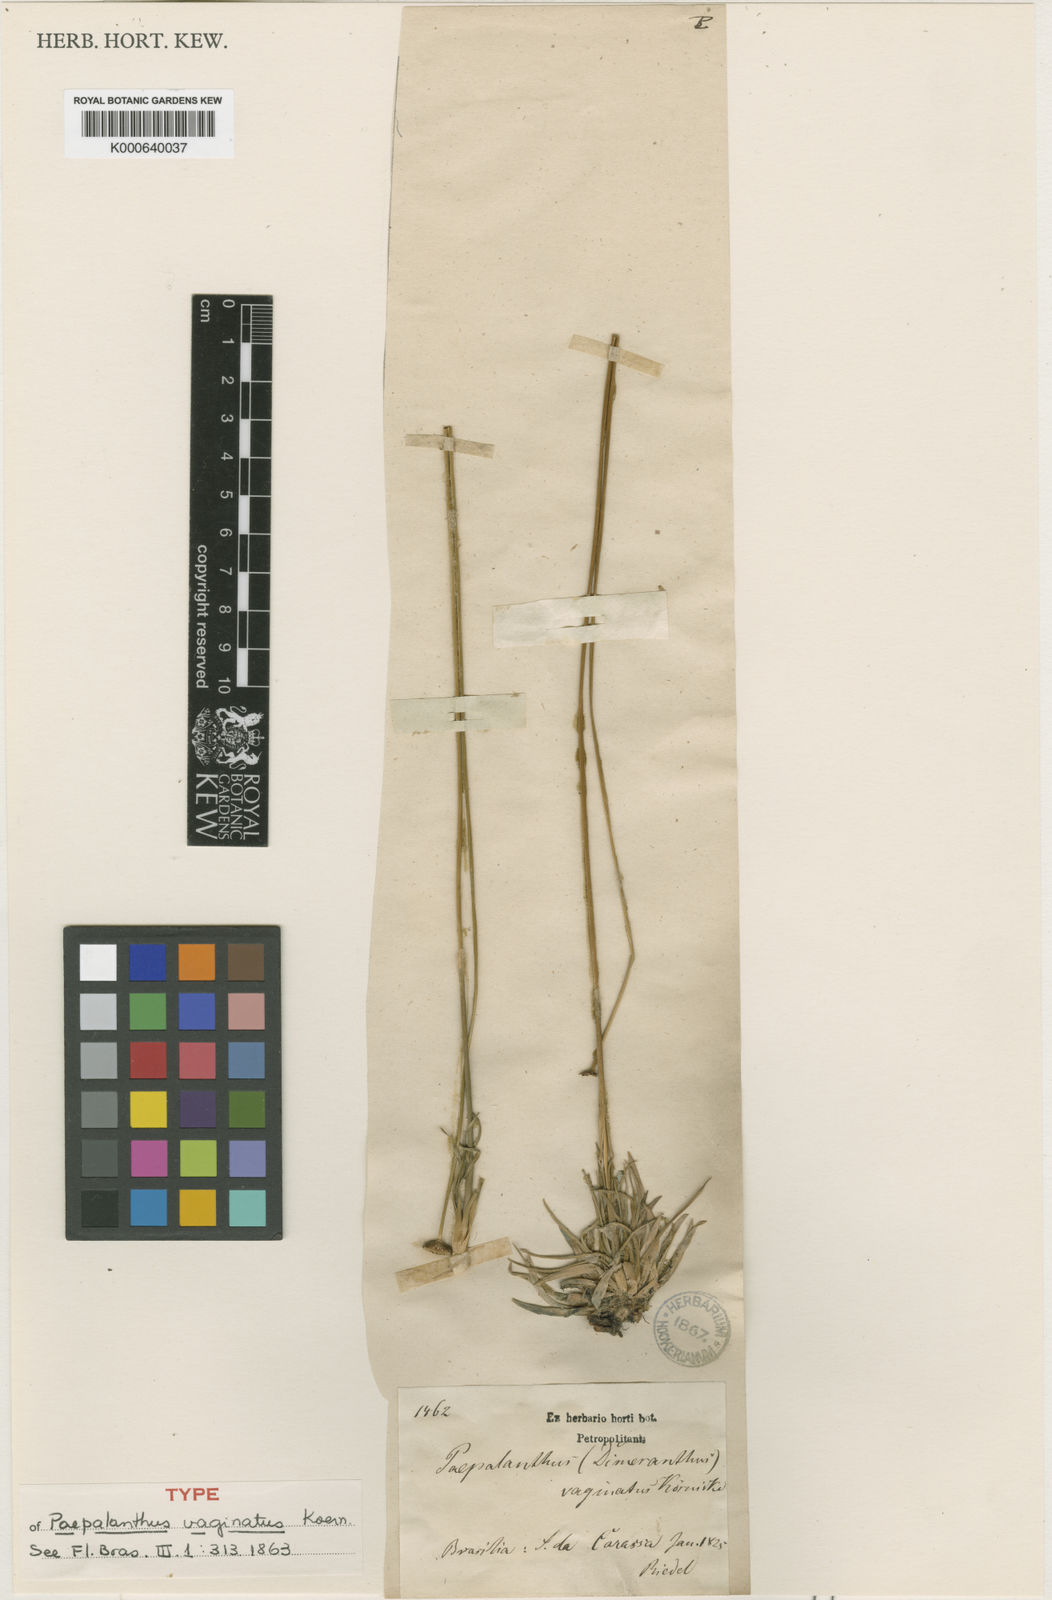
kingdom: Plantae
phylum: Tracheophyta
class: Liliopsida
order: Poales
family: Eriocaulaceae
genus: Paepalanthus
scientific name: Paepalanthus
